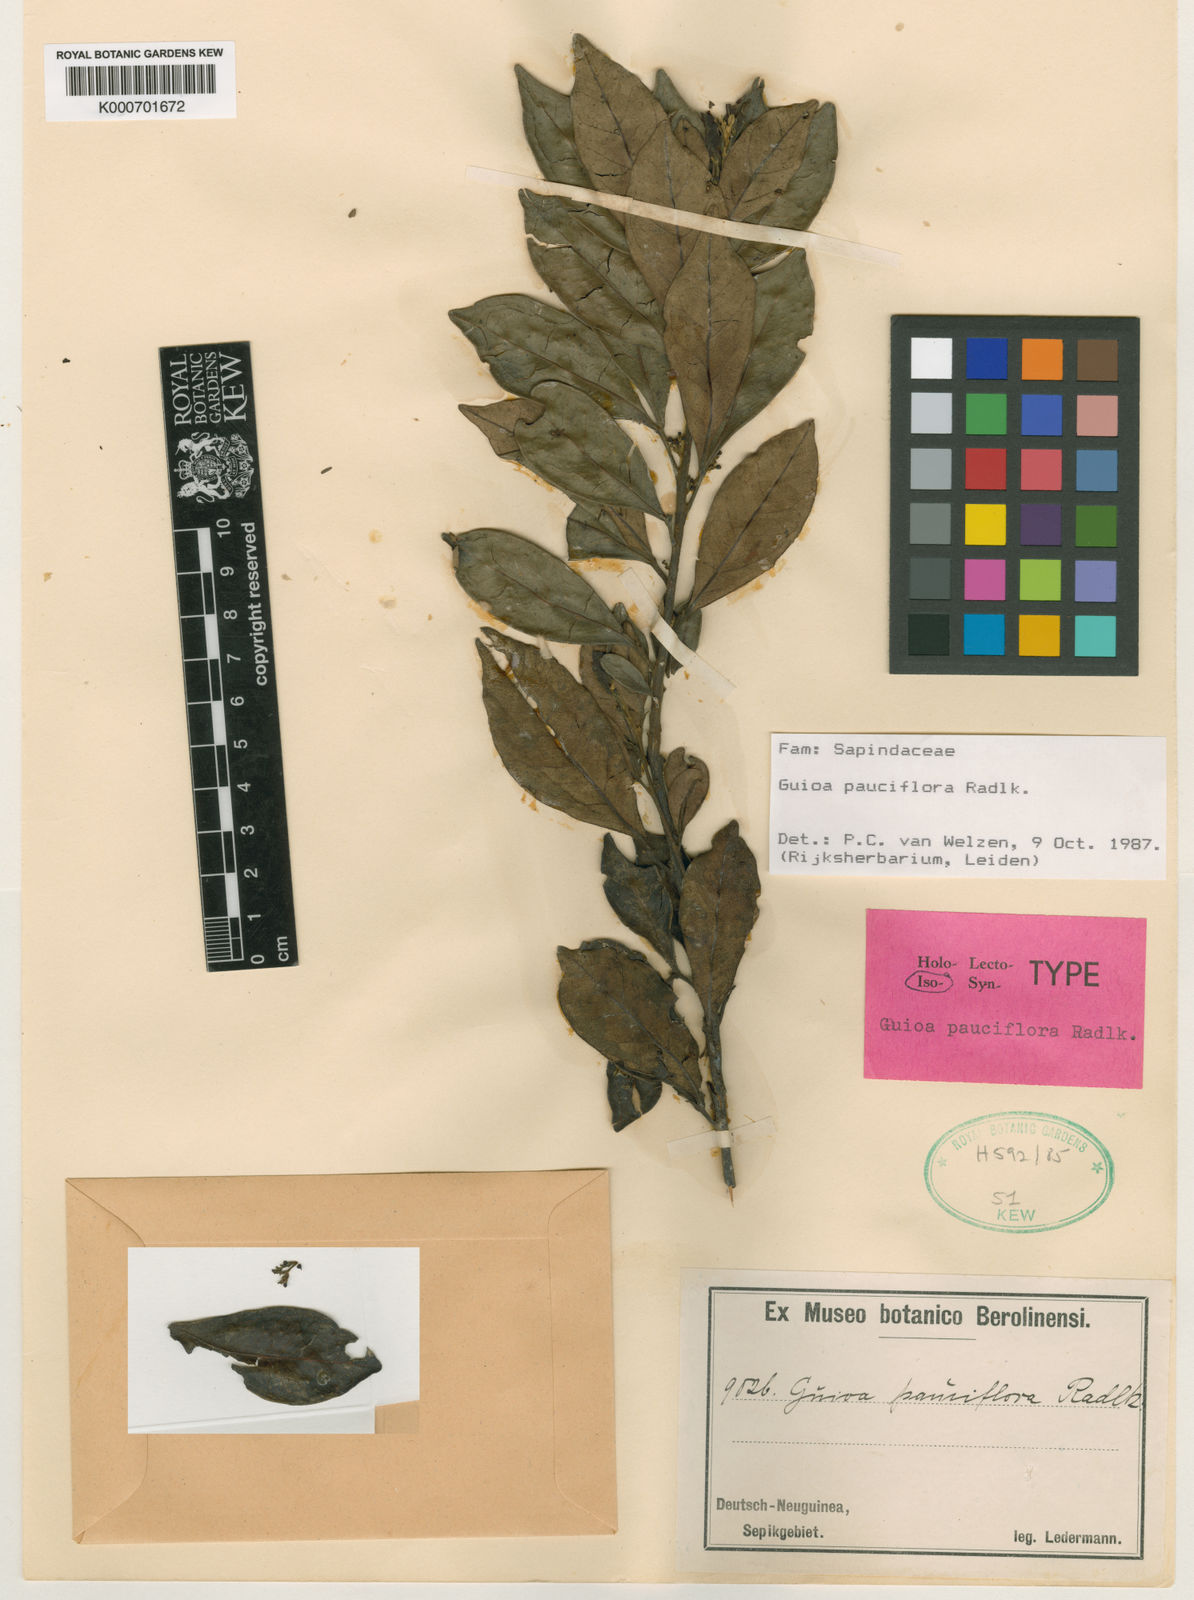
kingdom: Plantae
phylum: Tracheophyta
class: Magnoliopsida
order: Sapindales
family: Sapindaceae
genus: Guioa
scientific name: Guioa pauciflora
